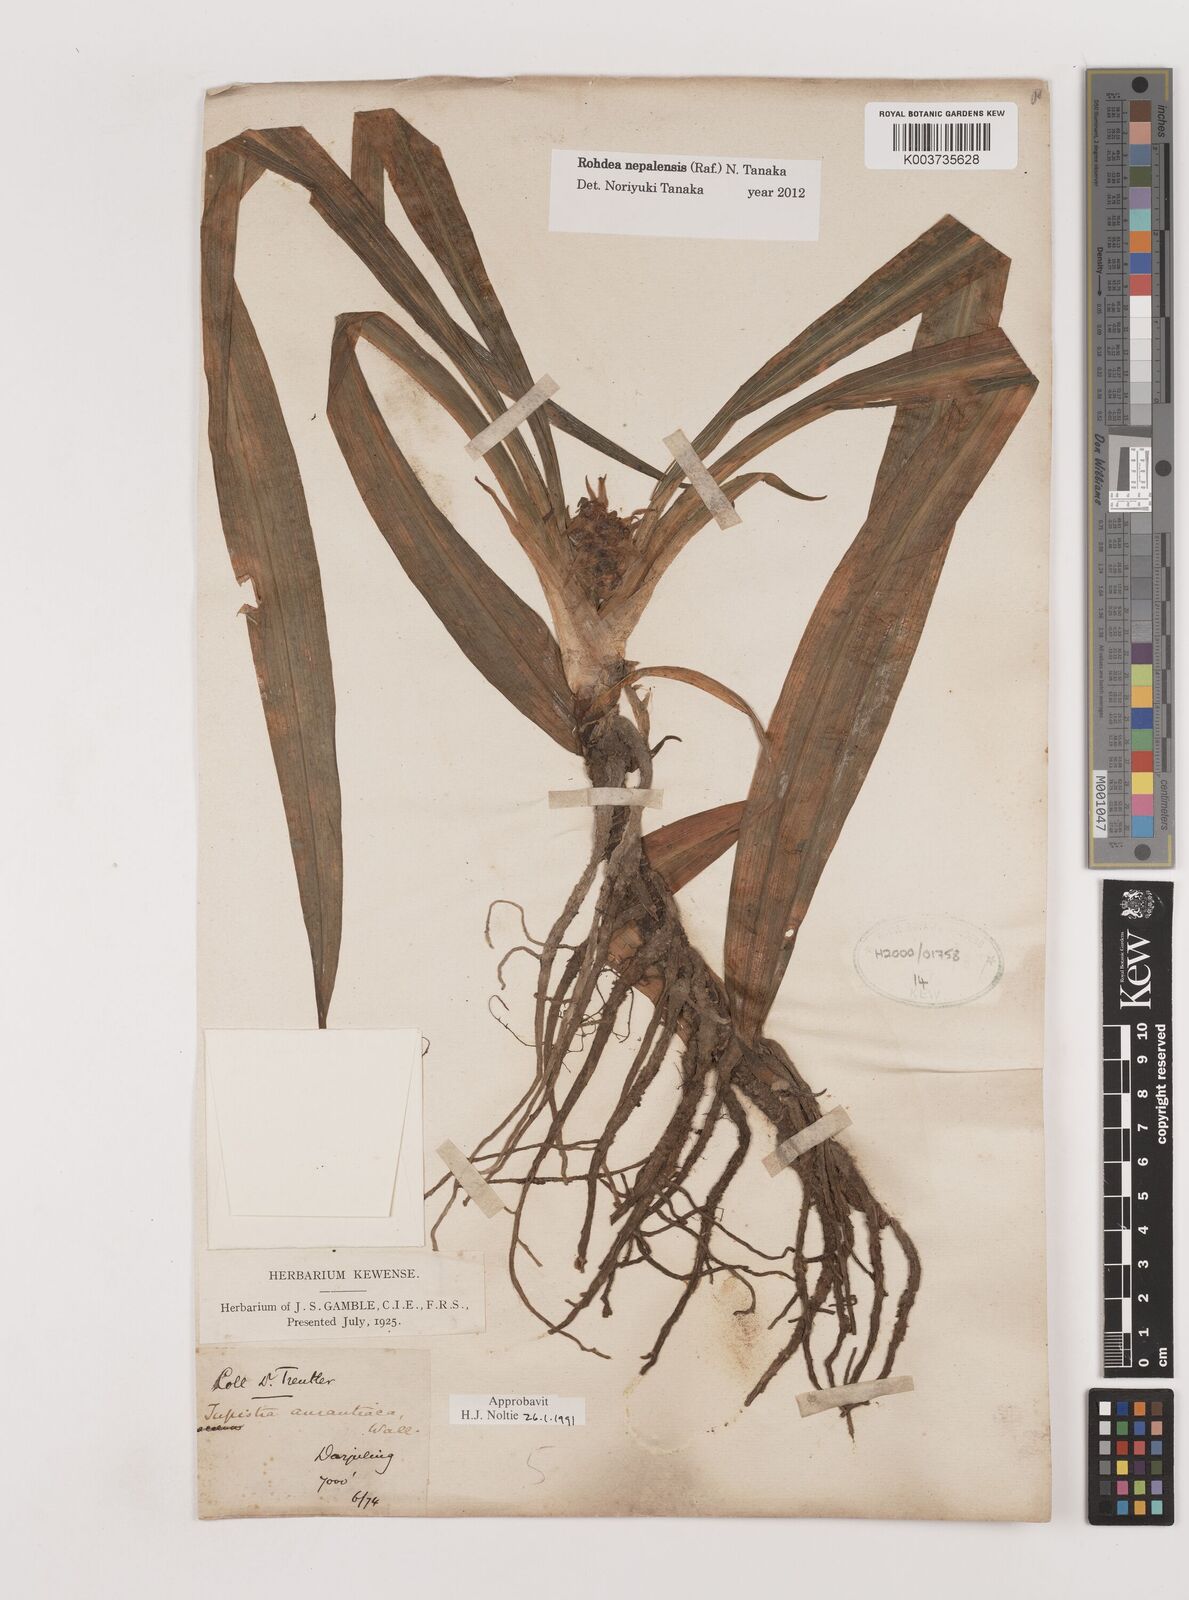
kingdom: Plantae
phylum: Tracheophyta
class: Liliopsida
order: Asparagales
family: Asparagaceae
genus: Rohdea
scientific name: Rohdea nepalensis
